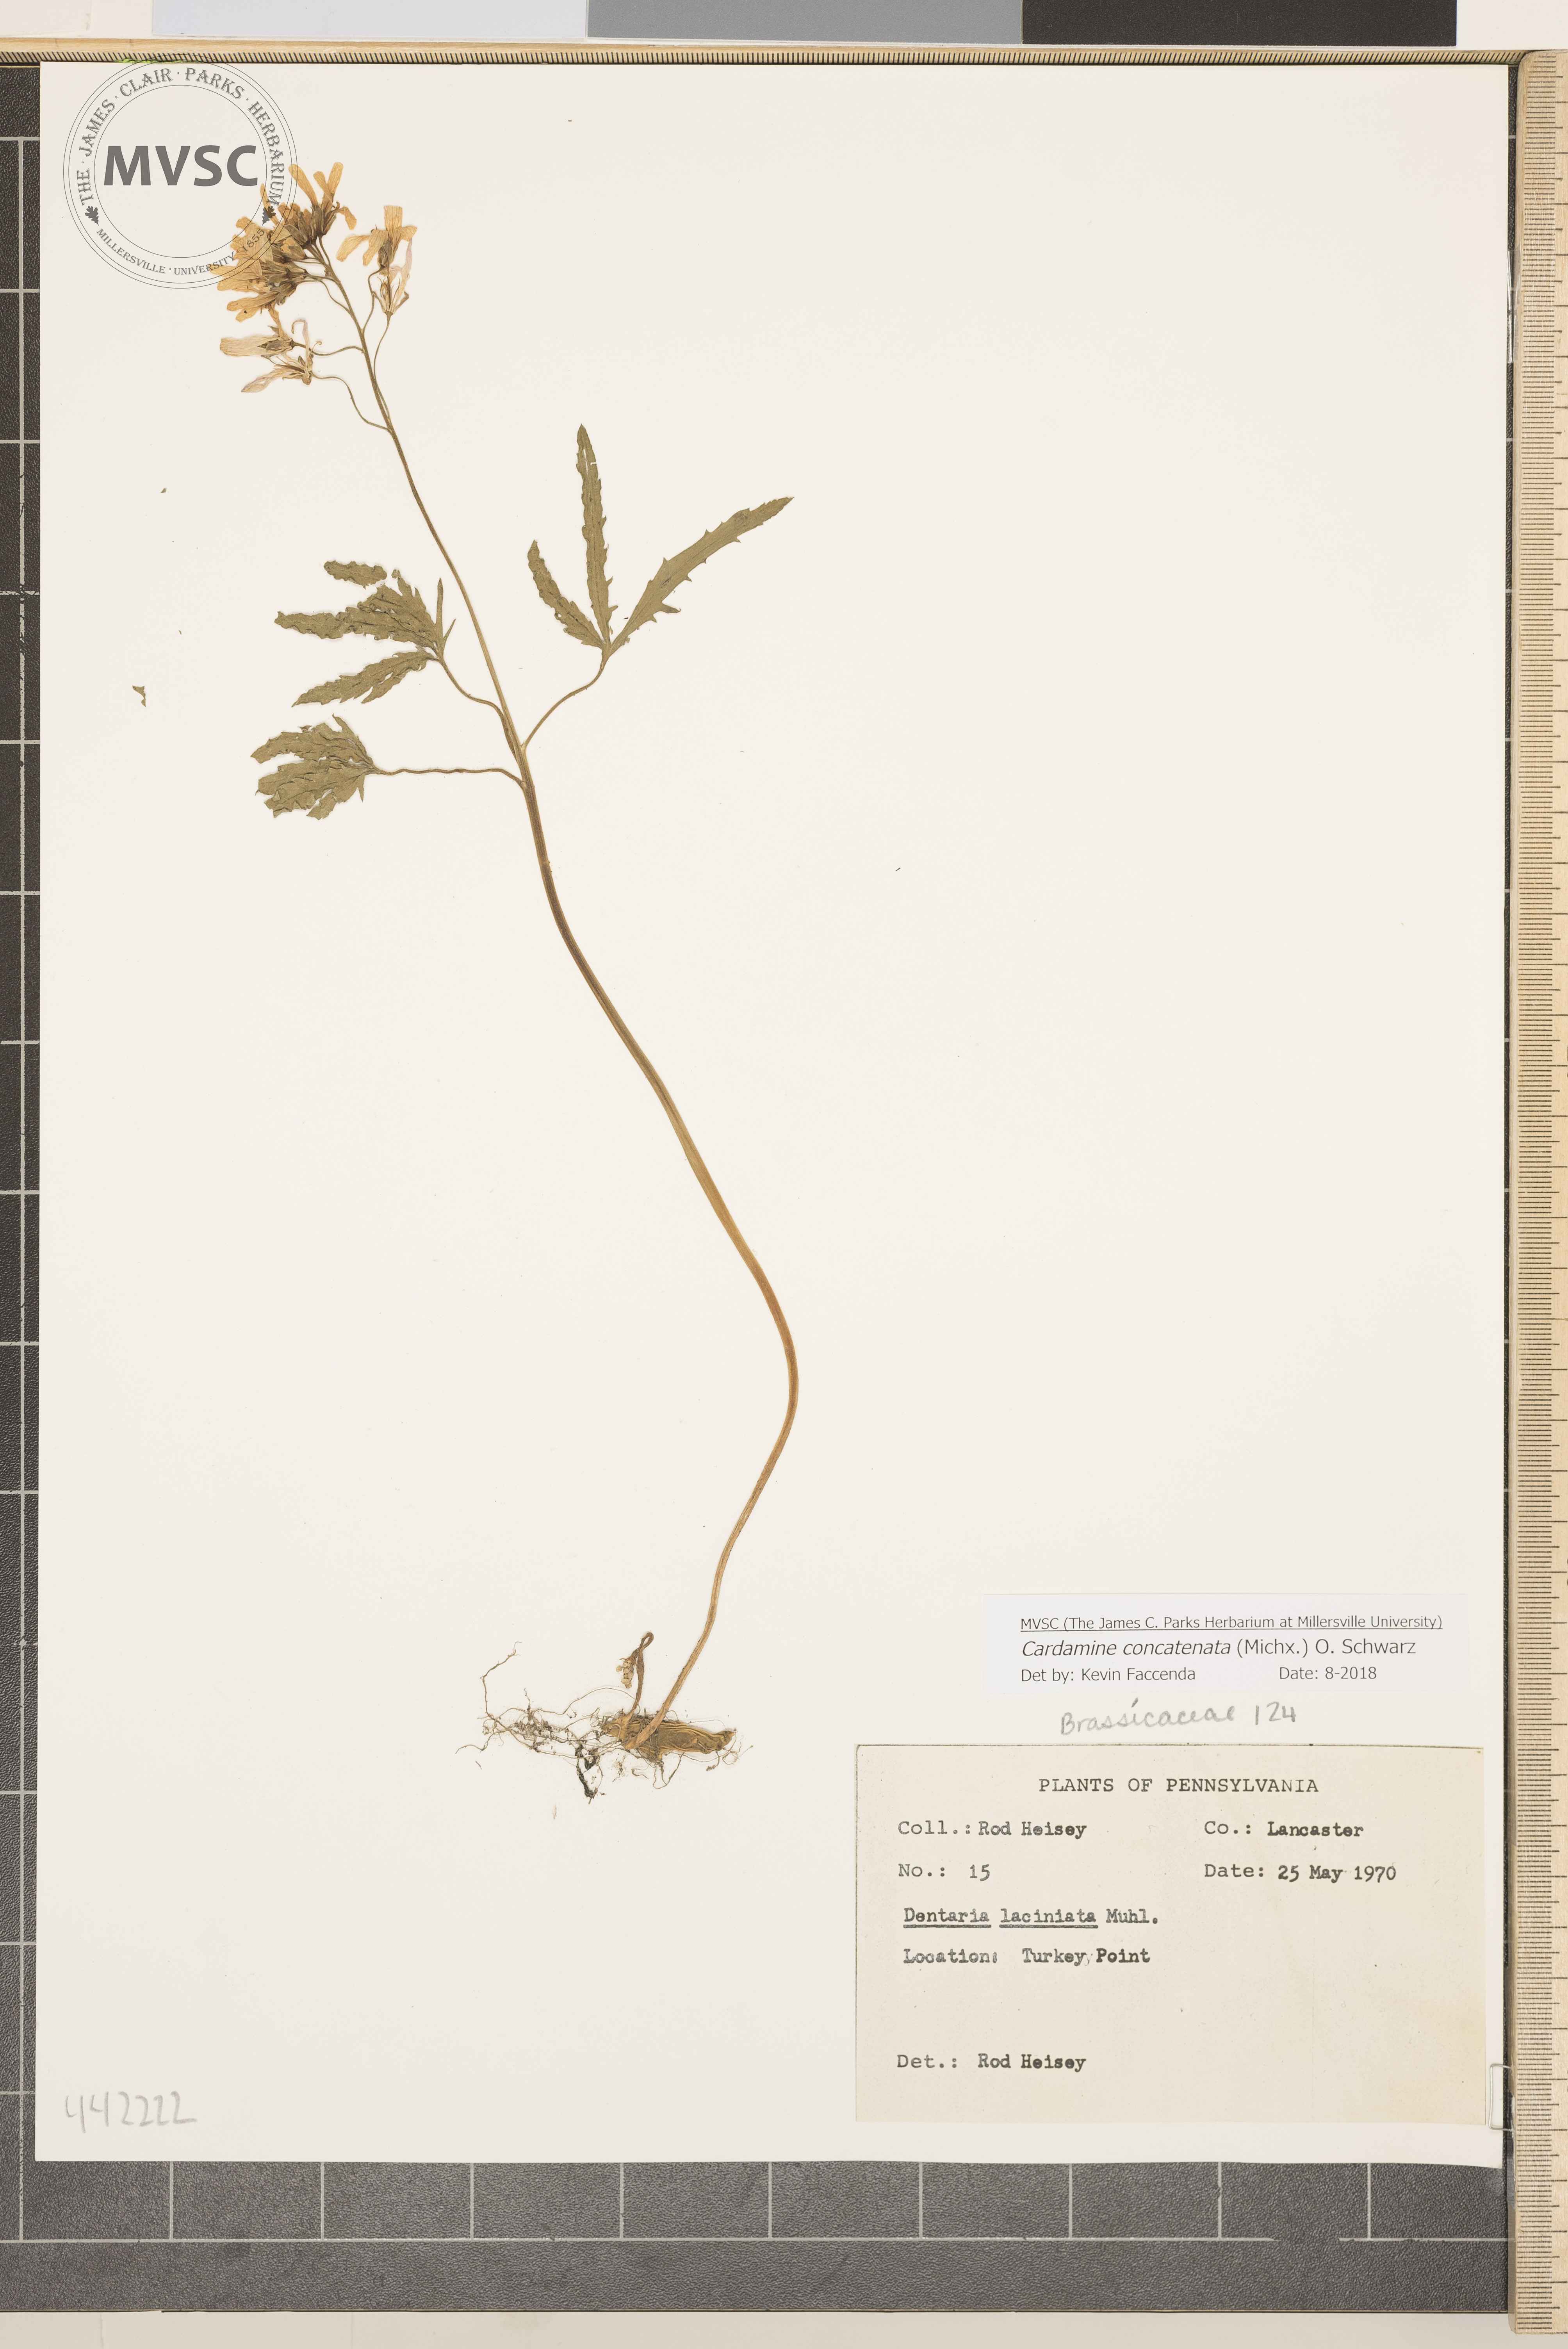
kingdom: Plantae
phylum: Tracheophyta
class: Magnoliopsida
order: Brassicales
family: Brassicaceae
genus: Cardamine
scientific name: Cardamine concatenata
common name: Cut-leaf toothcup
